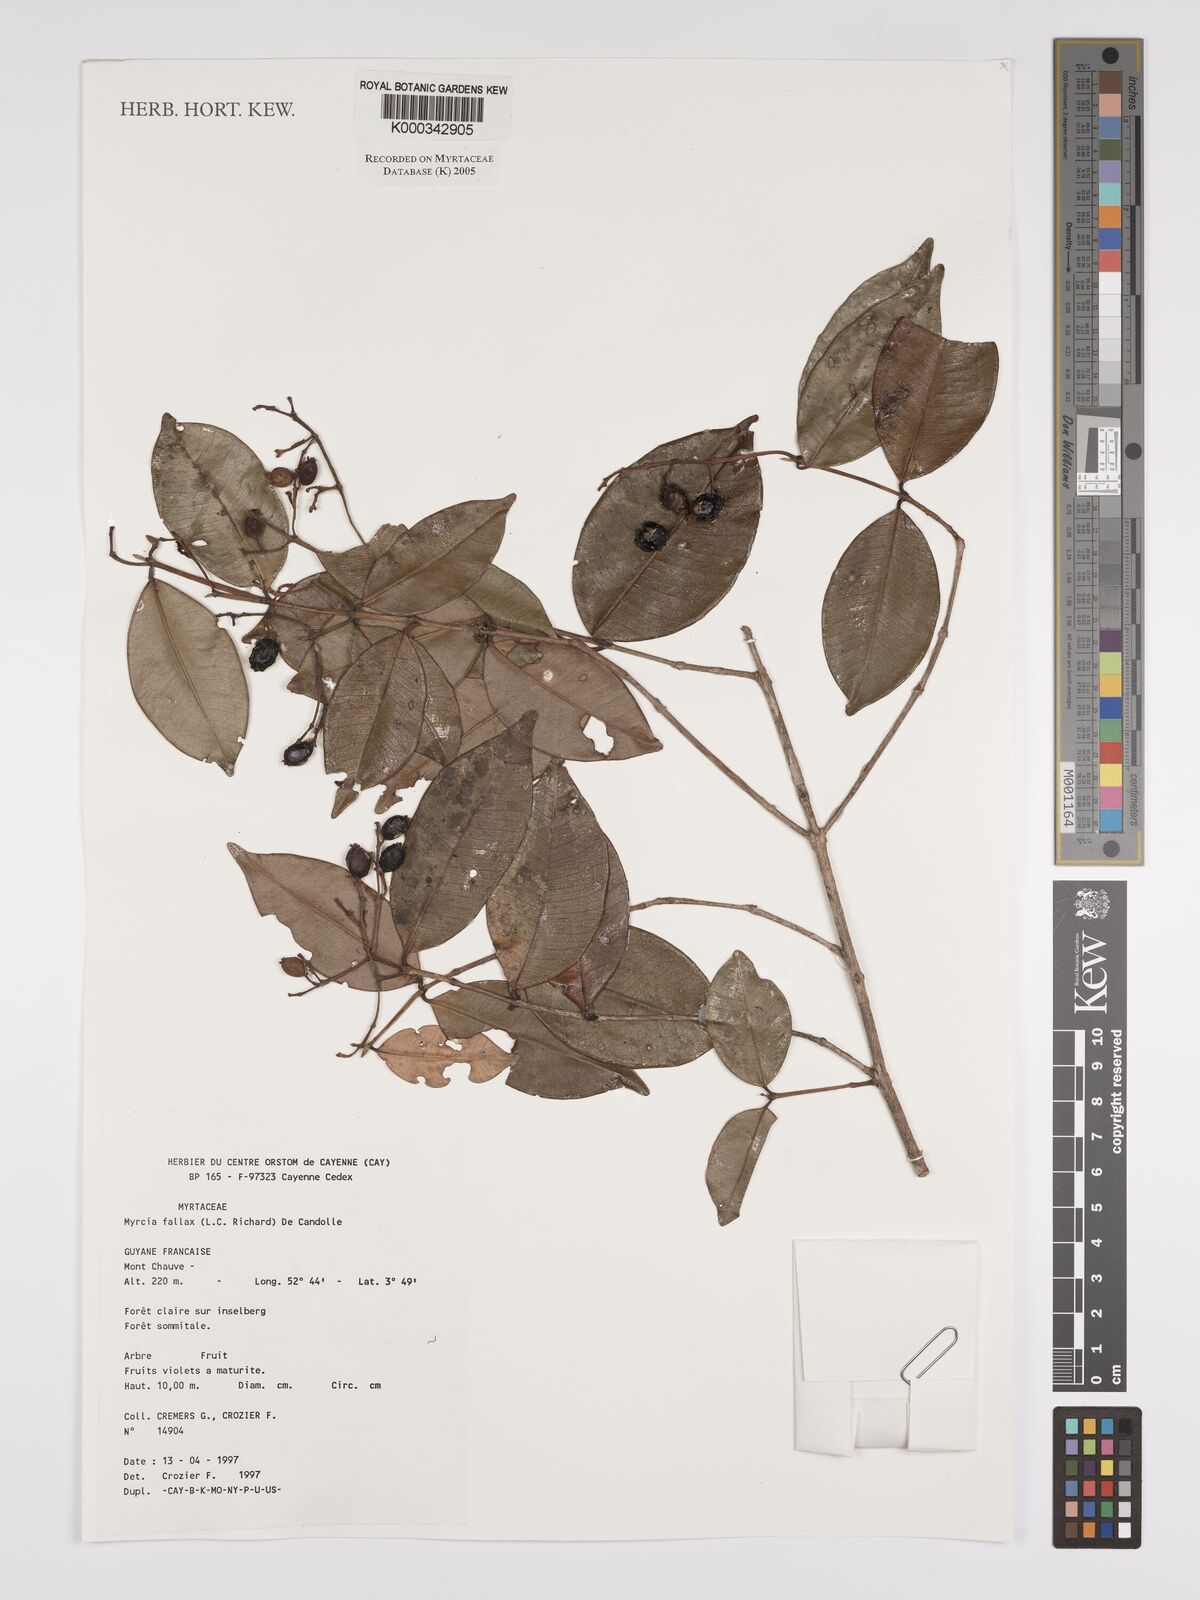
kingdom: Plantae
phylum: Tracheophyta
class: Magnoliopsida
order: Myrtales
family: Myrtaceae
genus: Myrcia
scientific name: Myrcia splendens
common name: Surinam cherry
